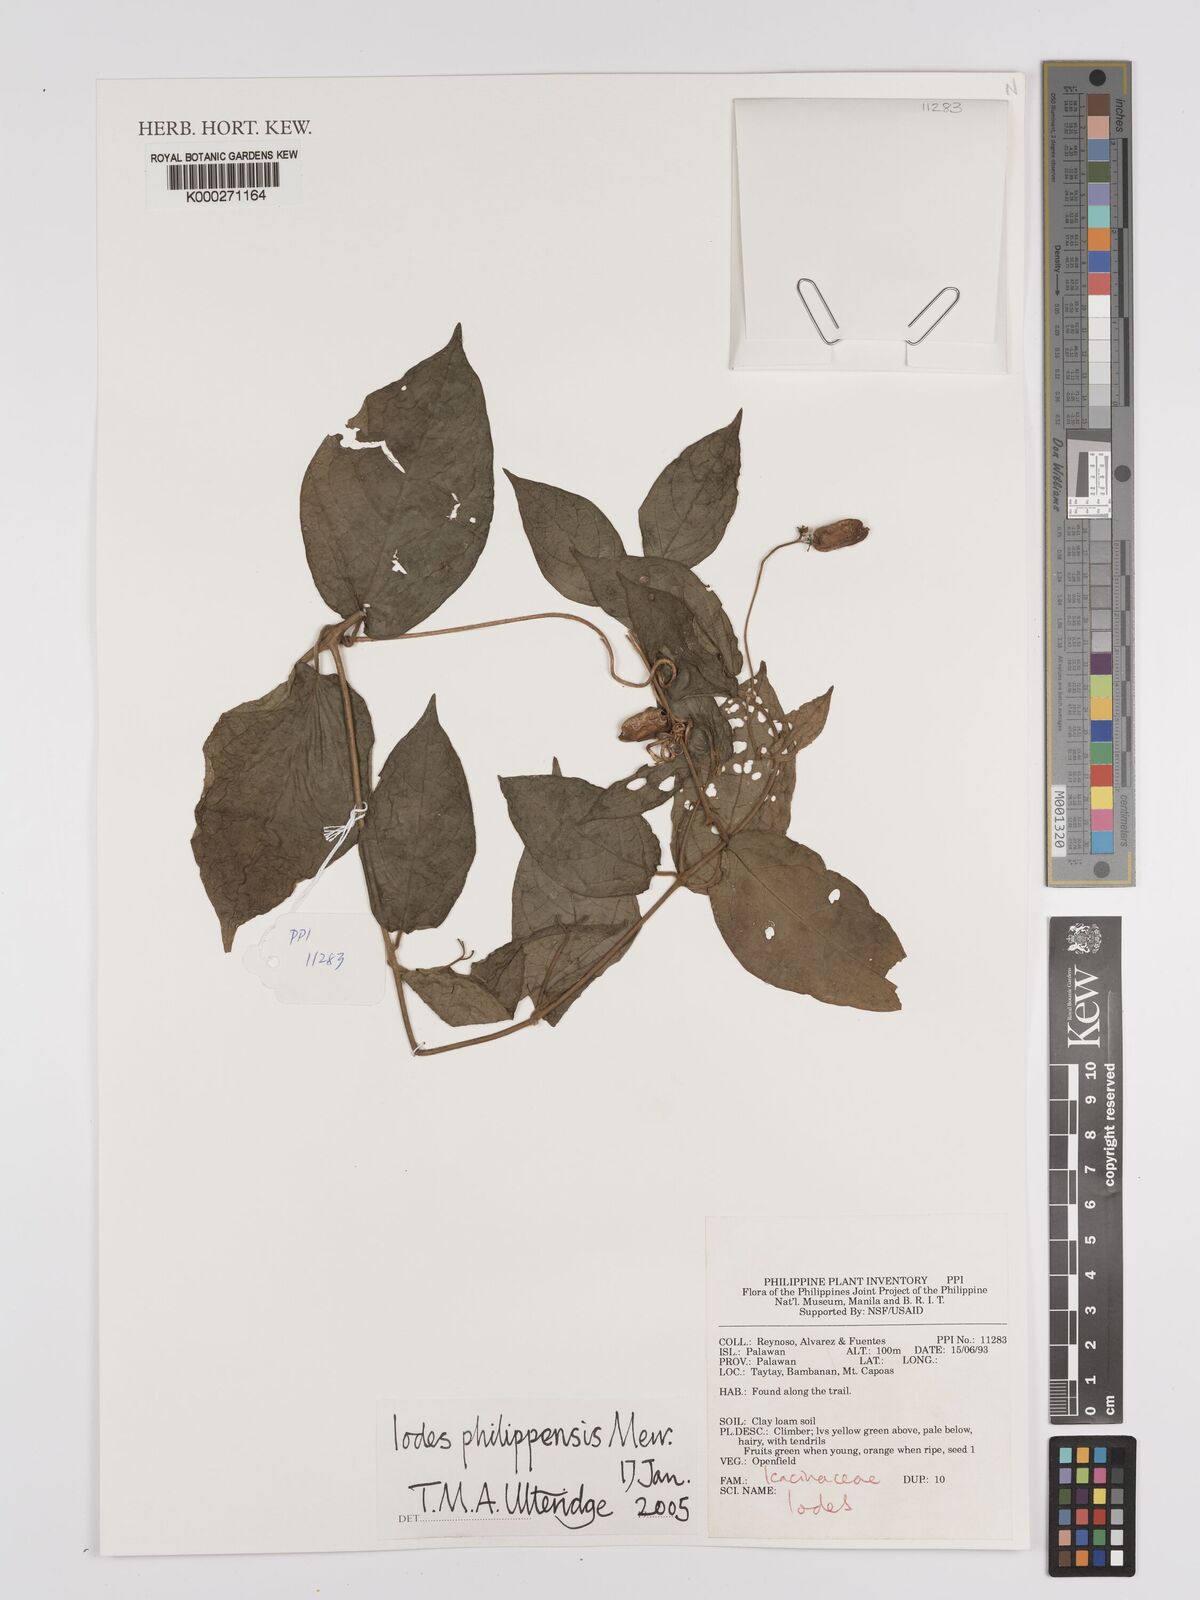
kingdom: Plantae
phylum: Tracheophyta
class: Magnoliopsida
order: Icacinales
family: Icacinaceae
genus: Iodes
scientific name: Iodes philippinensis
